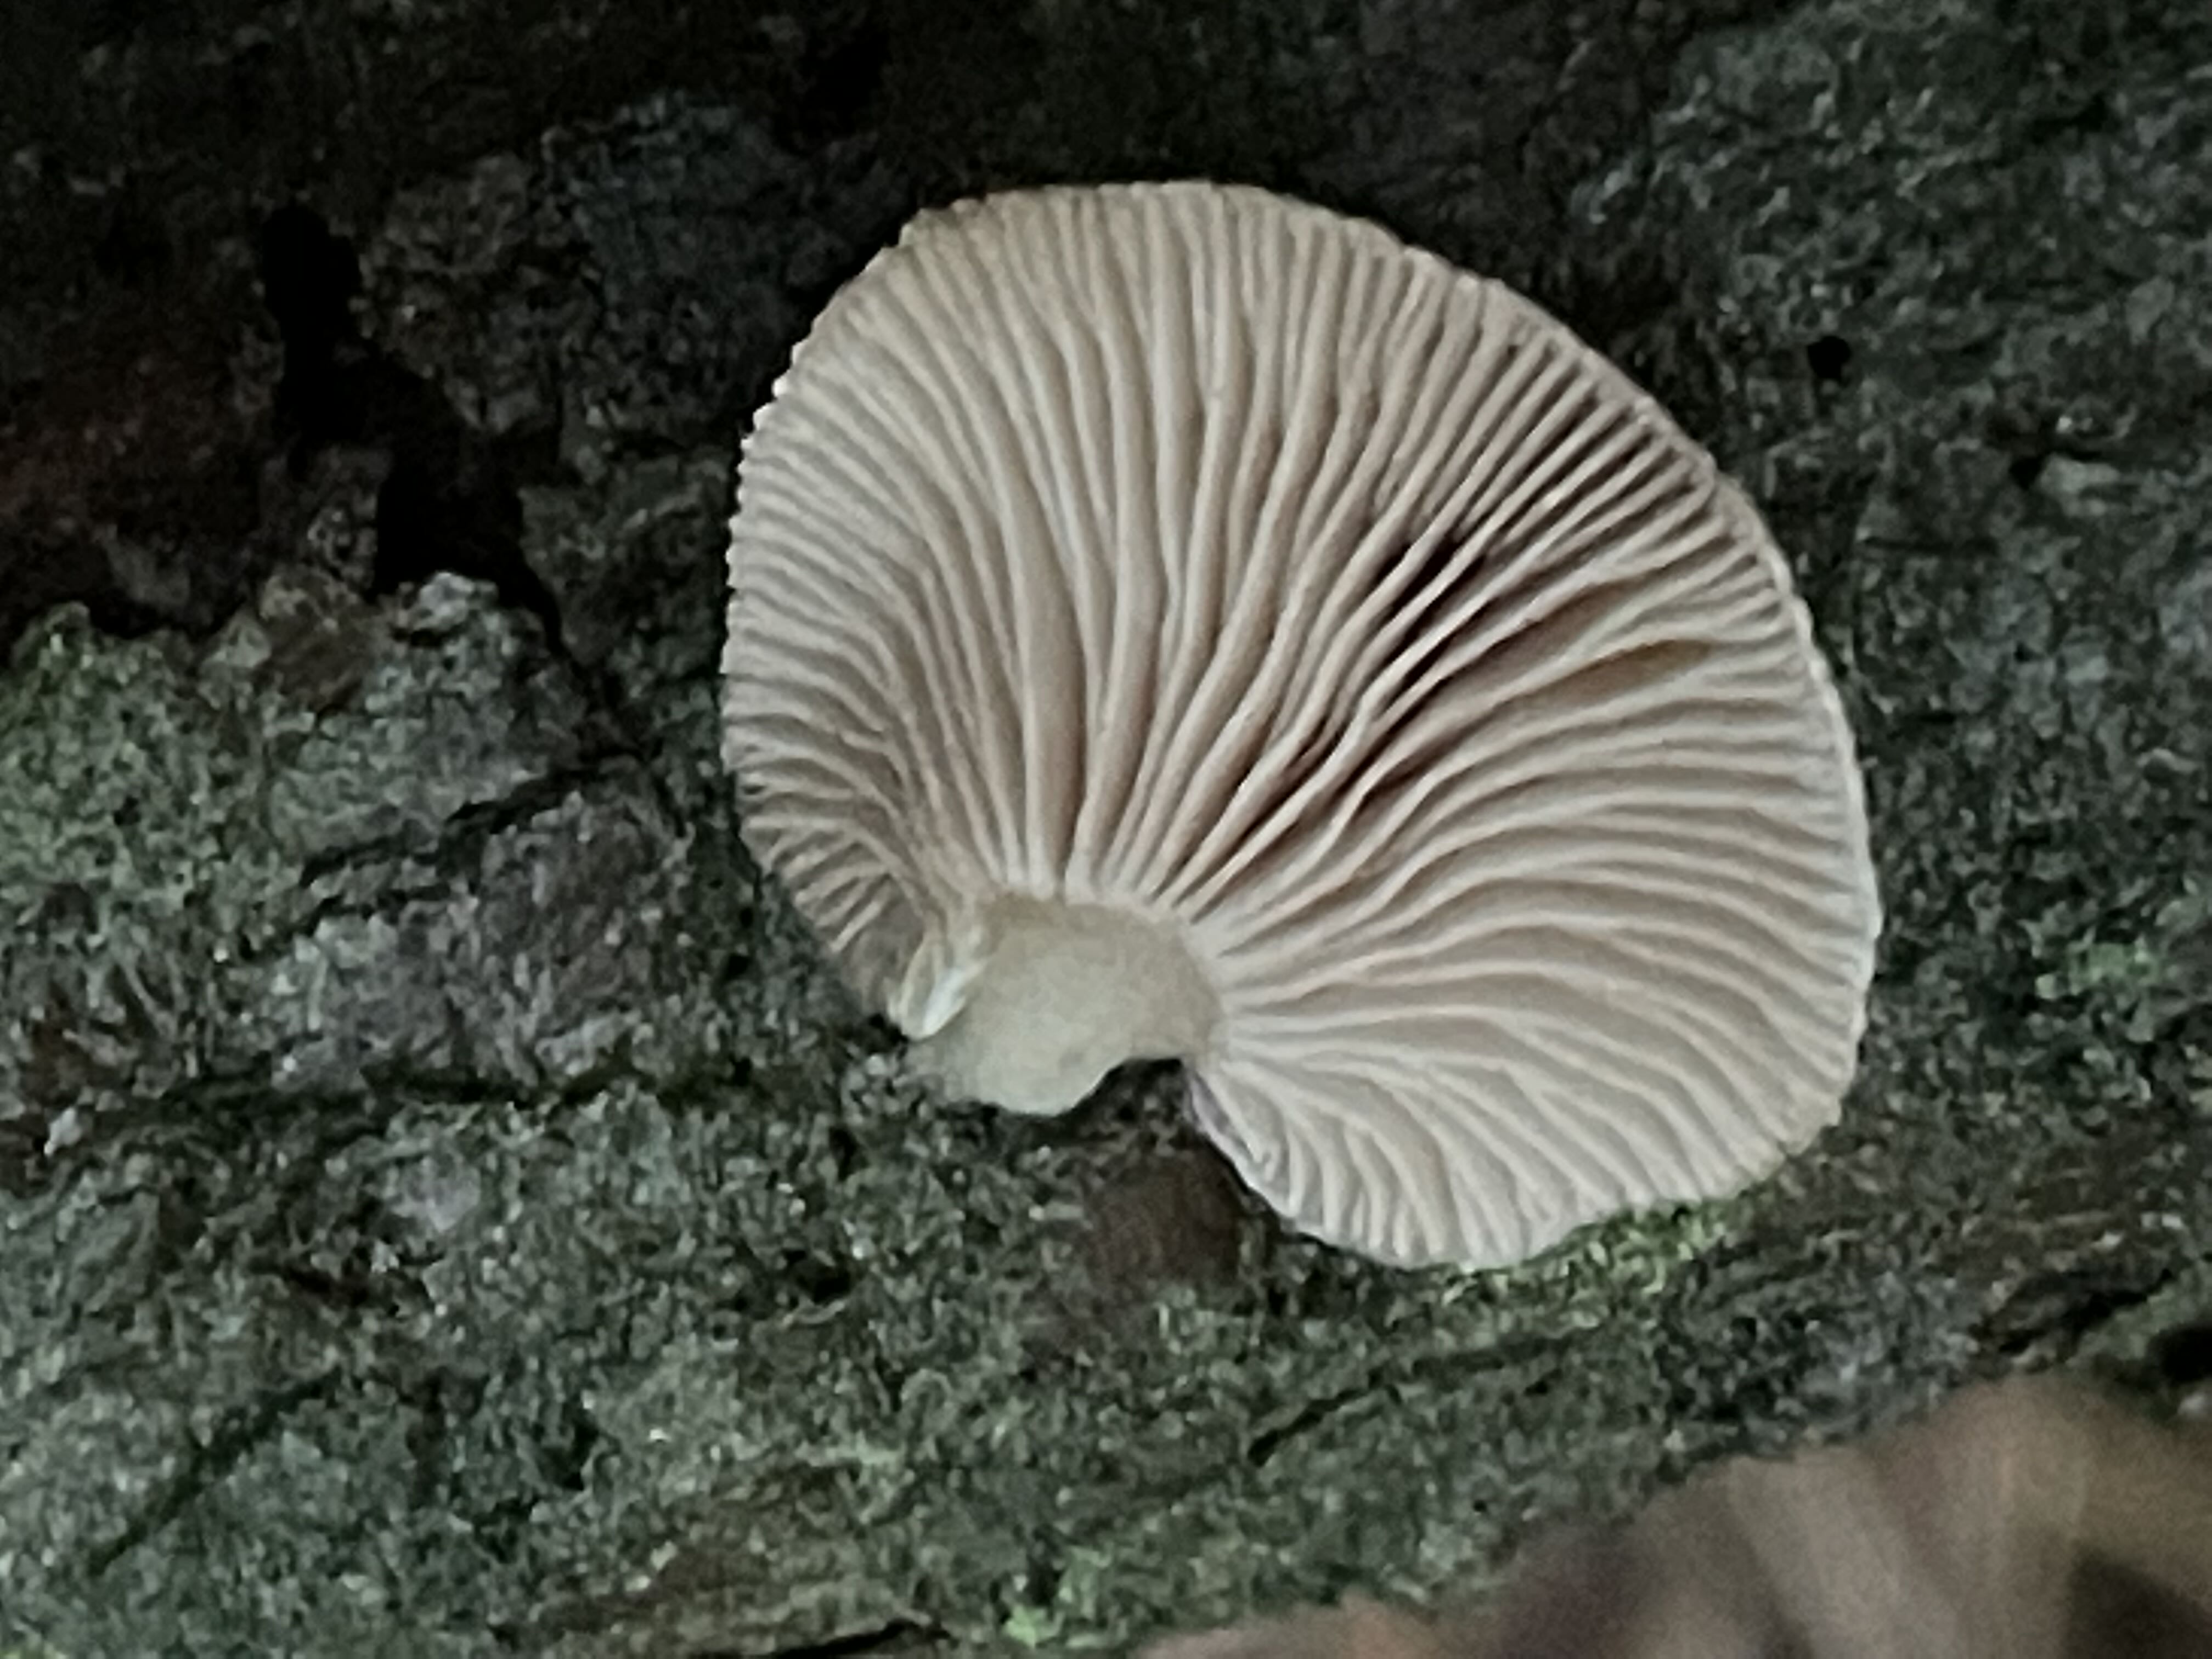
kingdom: Fungi
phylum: Basidiomycota
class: Agaricomycetes
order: Agaricales
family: Mycenaceae
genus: Panellus
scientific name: Panellus mitis
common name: mild epaulethat
